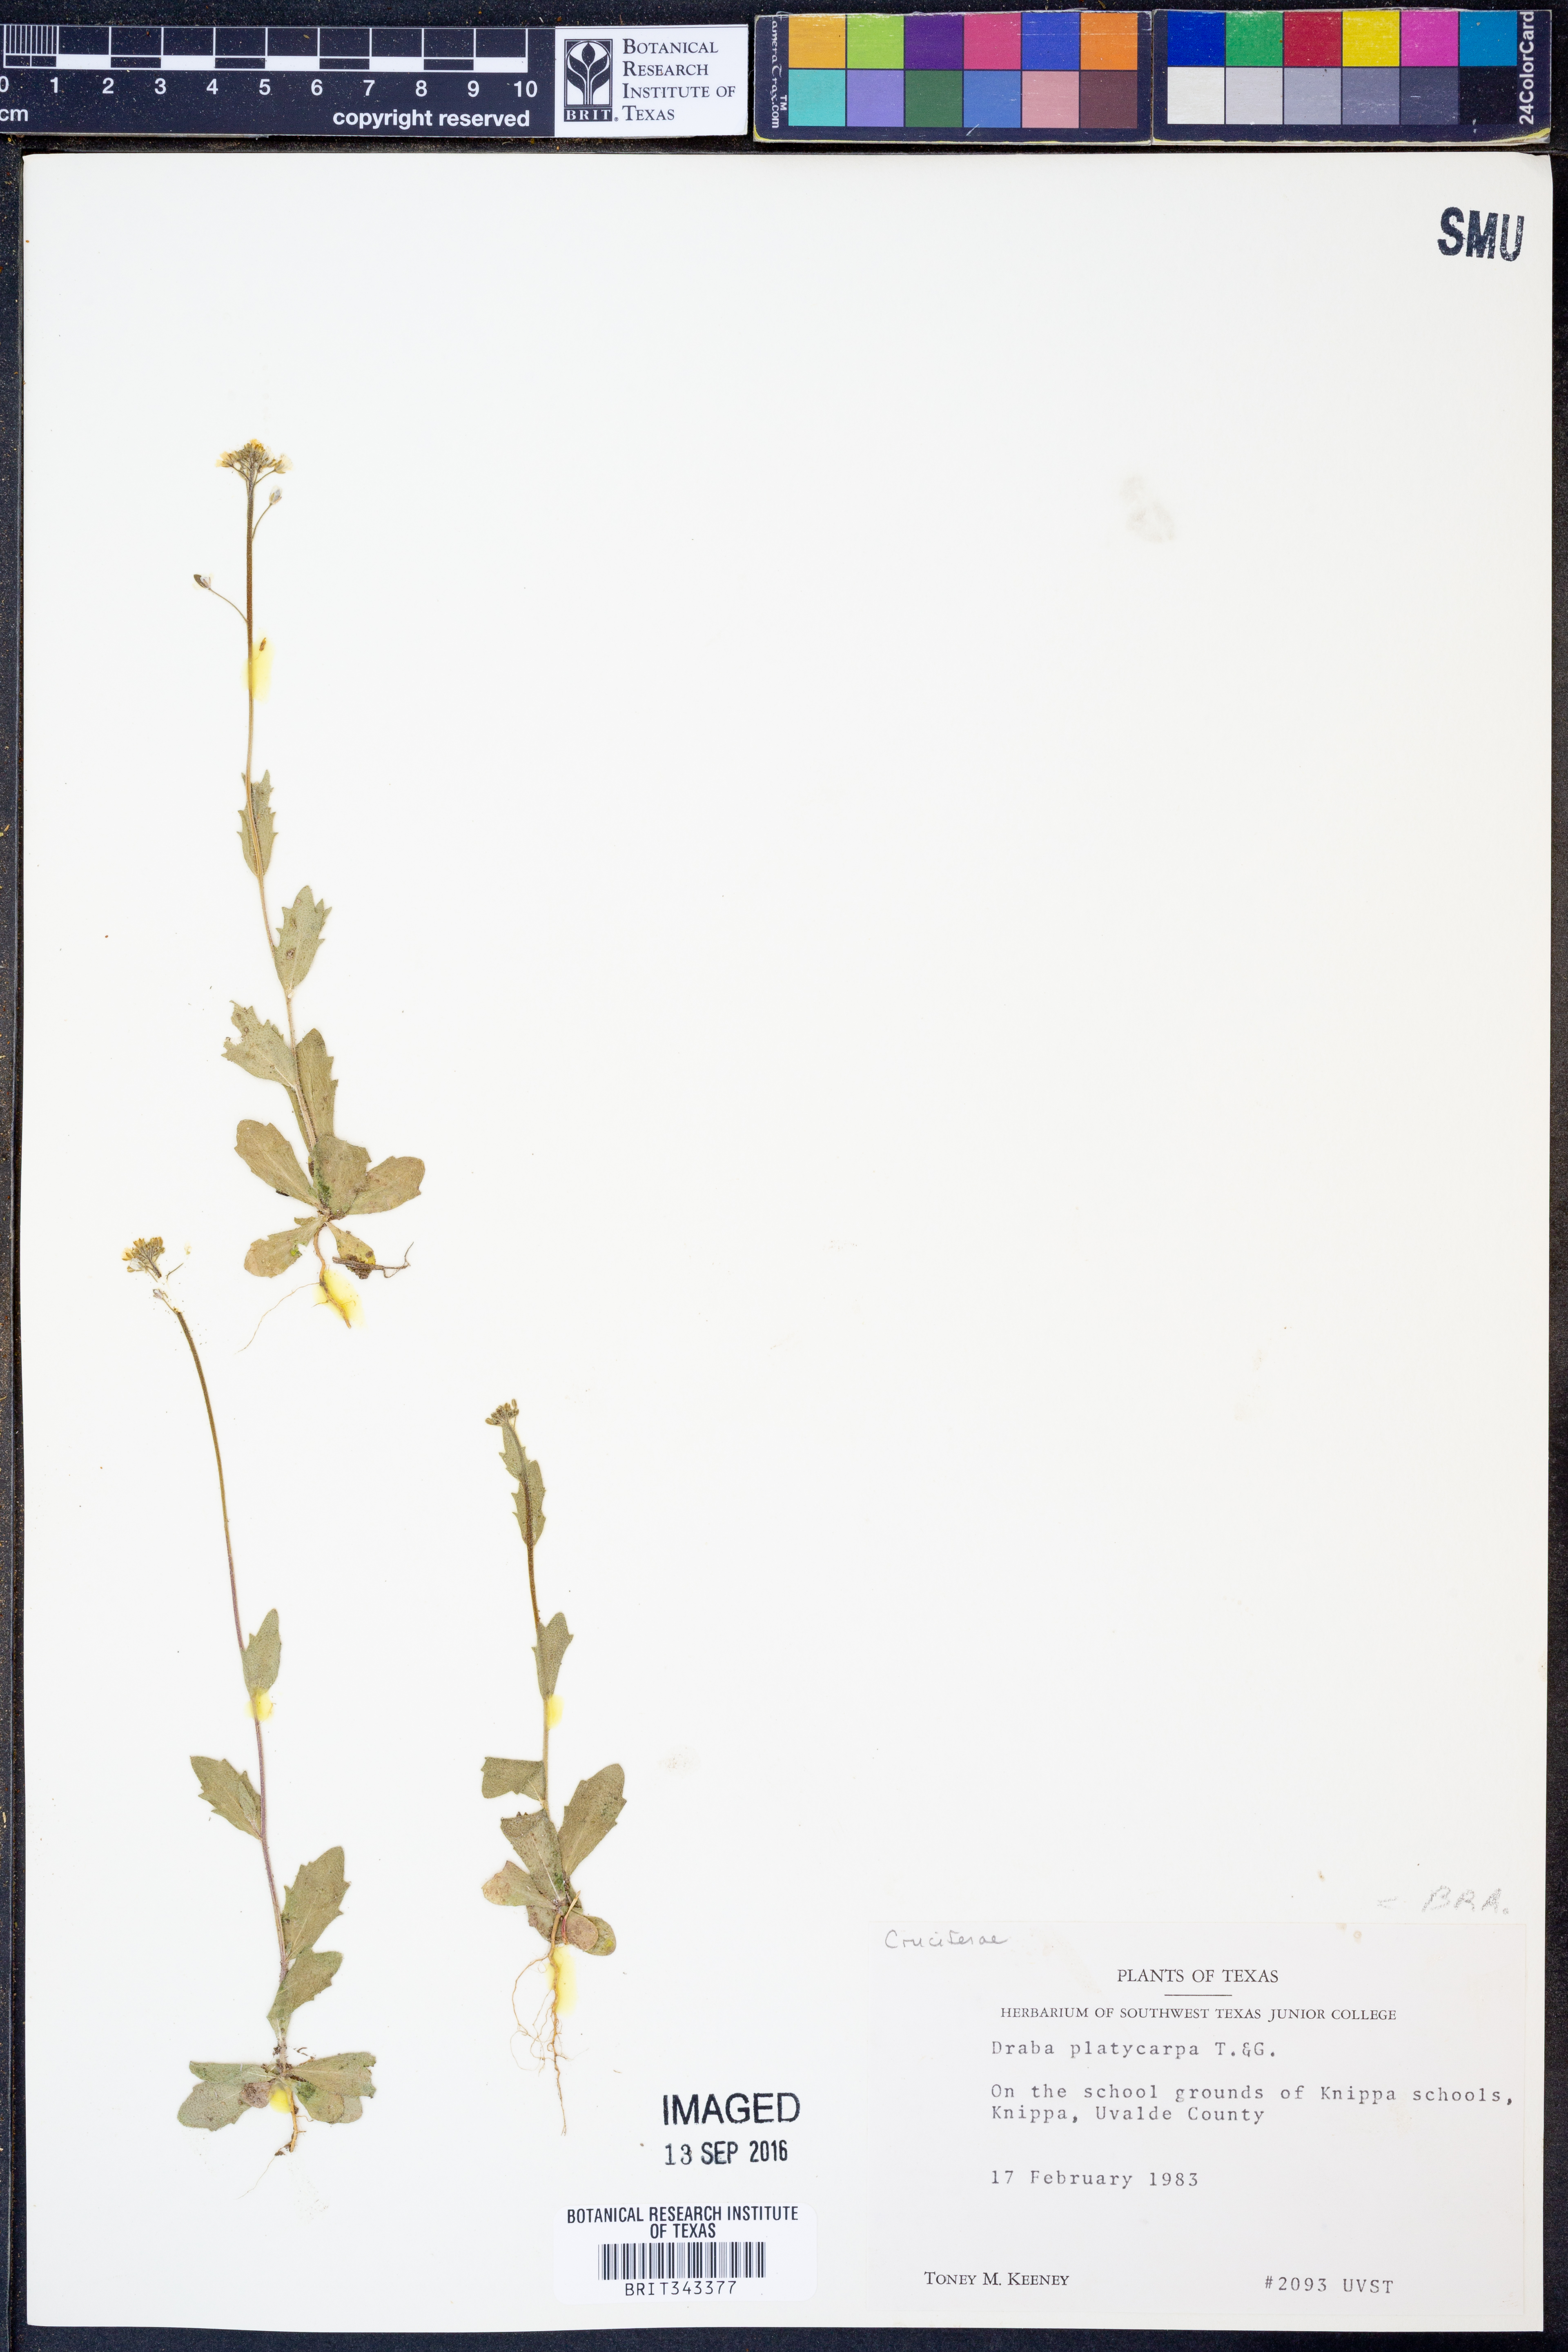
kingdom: Plantae
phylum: Tracheophyta
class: Magnoliopsida
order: Brassicales
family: Brassicaceae
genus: Tomostima
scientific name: Tomostima platycarpa
